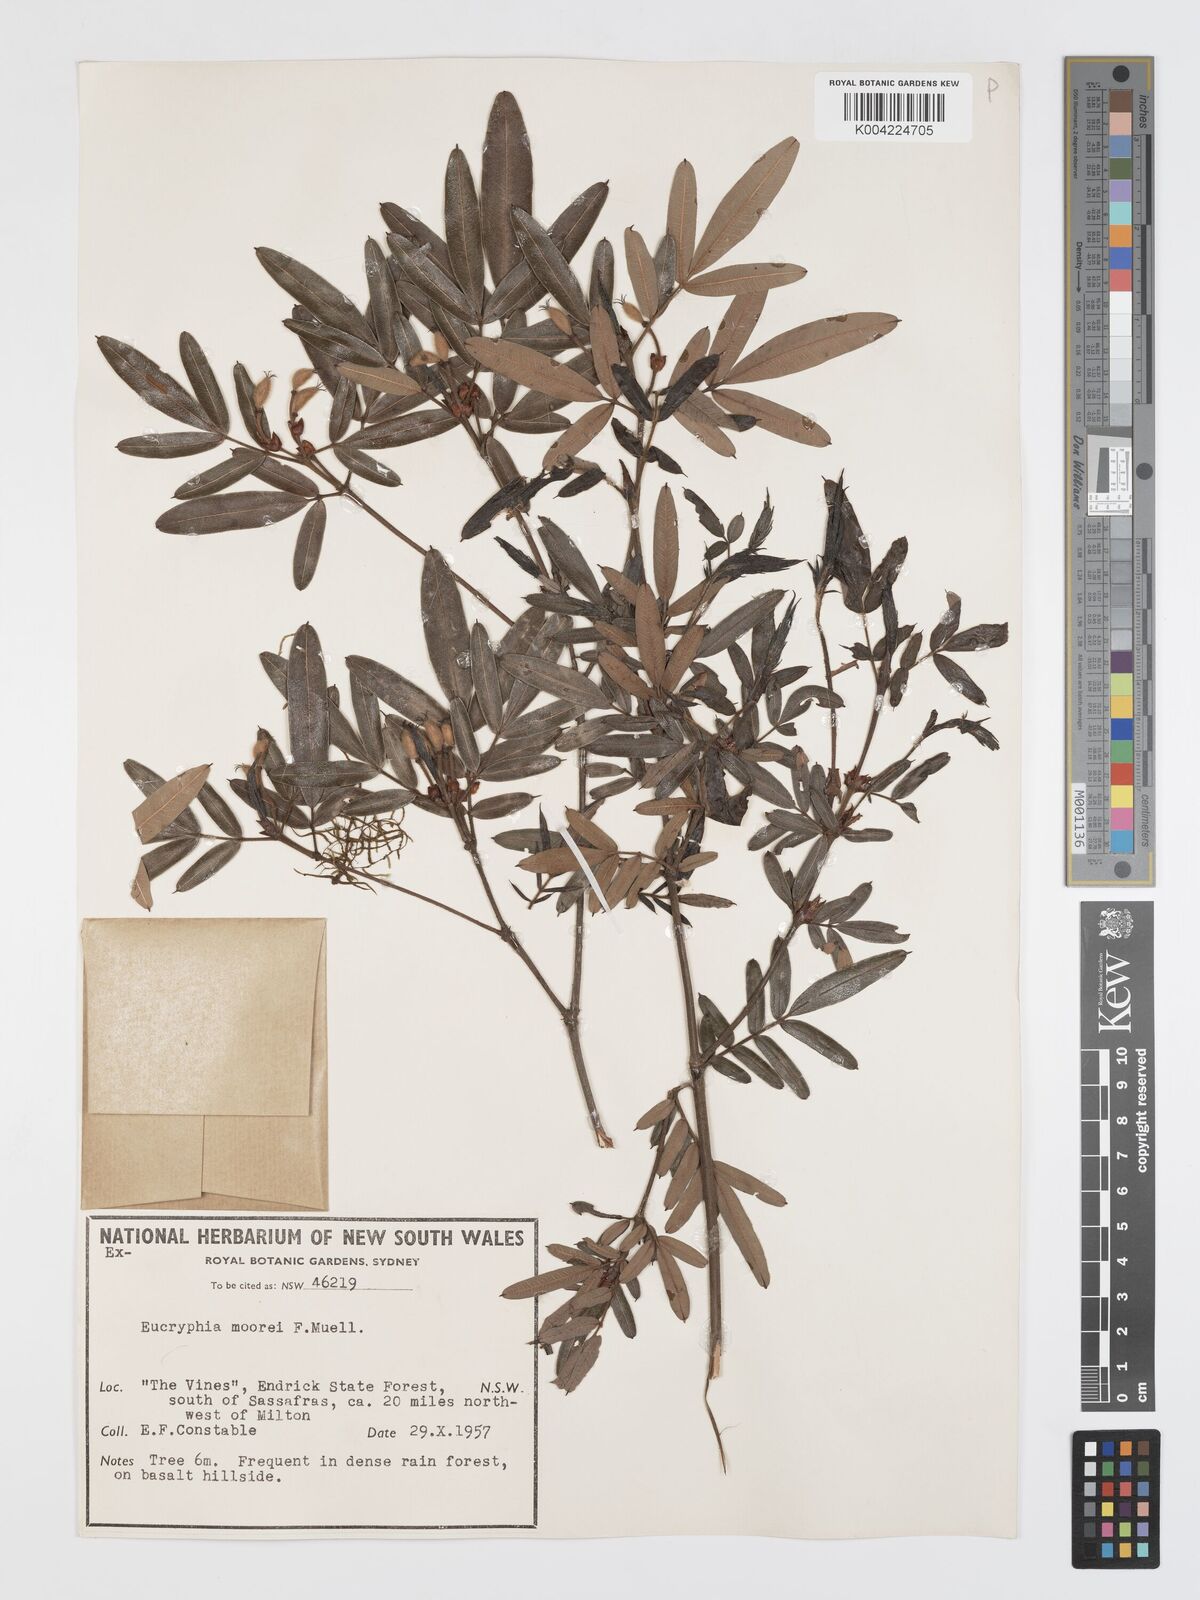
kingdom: Plantae
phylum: Tracheophyta
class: Magnoliopsida
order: Oxalidales
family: Cunoniaceae
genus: Eucryphia
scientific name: Eucryphia moorei
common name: Acacia-plum
